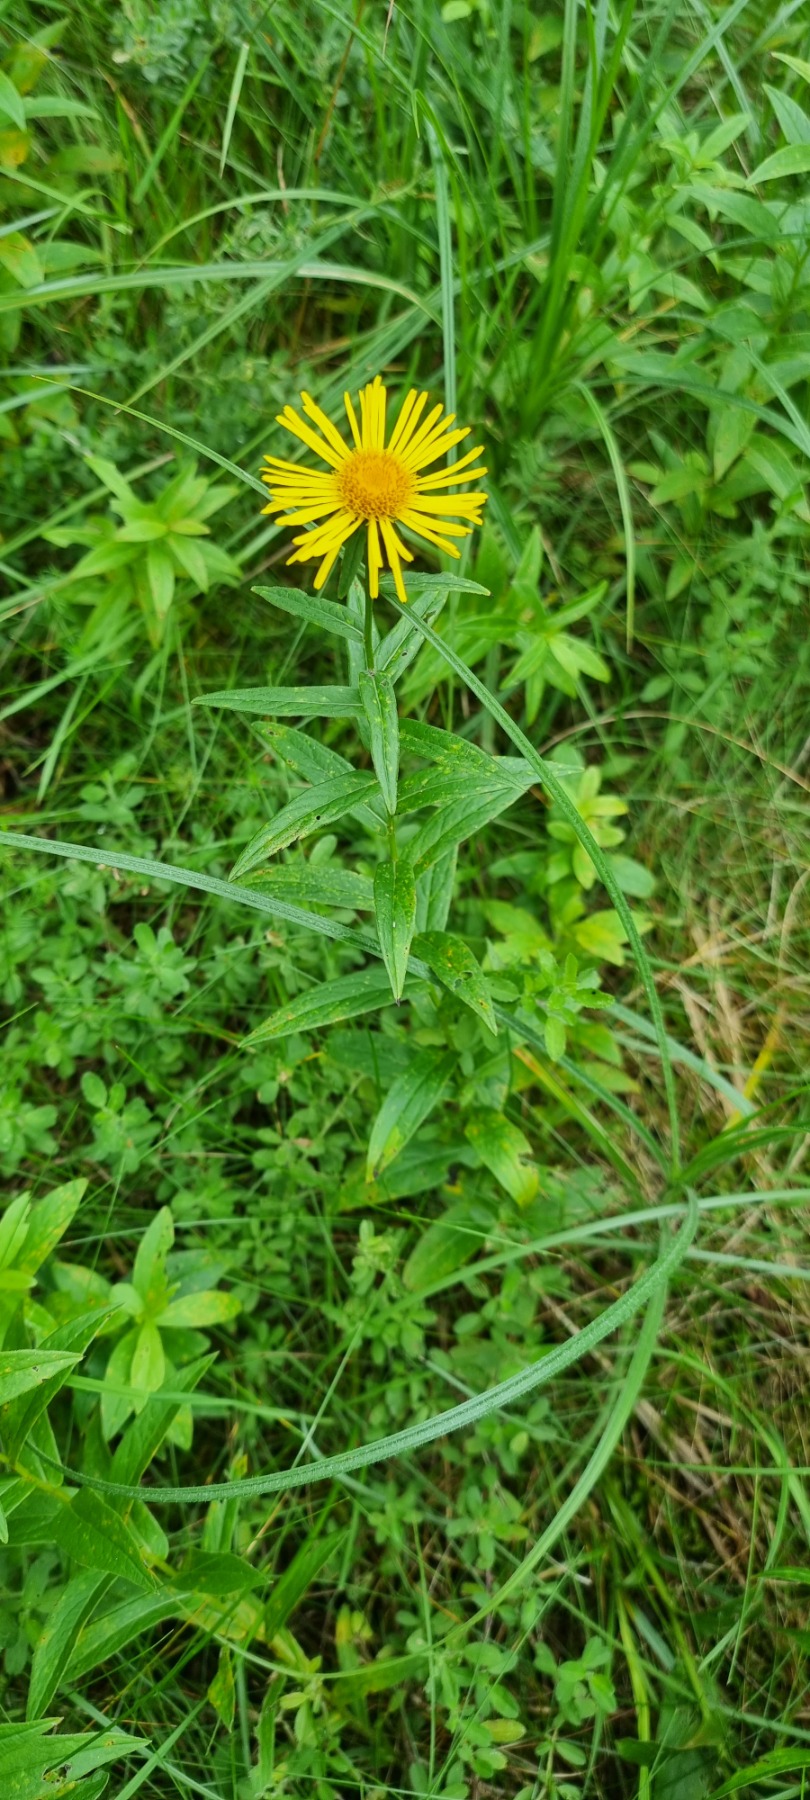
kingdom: Plantae
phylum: Tracheophyta
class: Magnoliopsida
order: Asterales
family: Asteraceae
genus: Pentanema
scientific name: Pentanema salicinum
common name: Pile-alant
